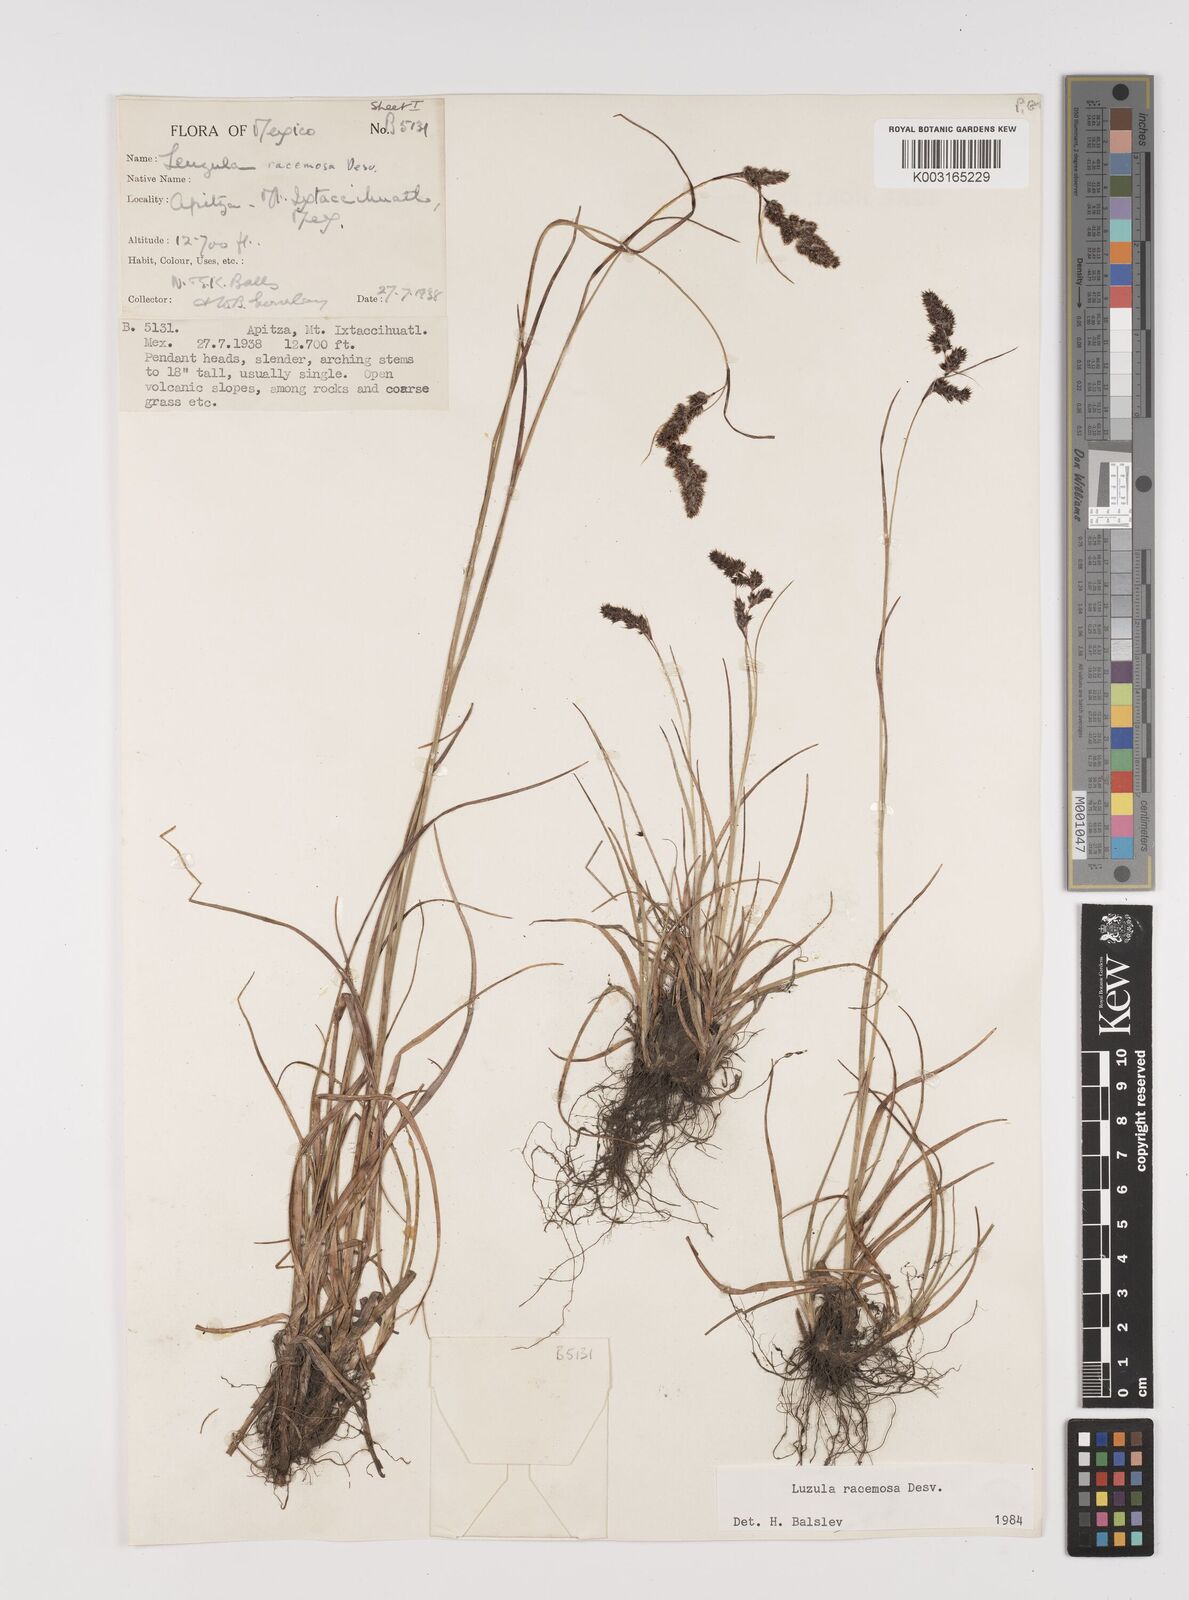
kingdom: Plantae
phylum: Tracheophyta
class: Liliopsida
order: Poales
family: Juncaceae
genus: Luzula
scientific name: Luzula racemosa
